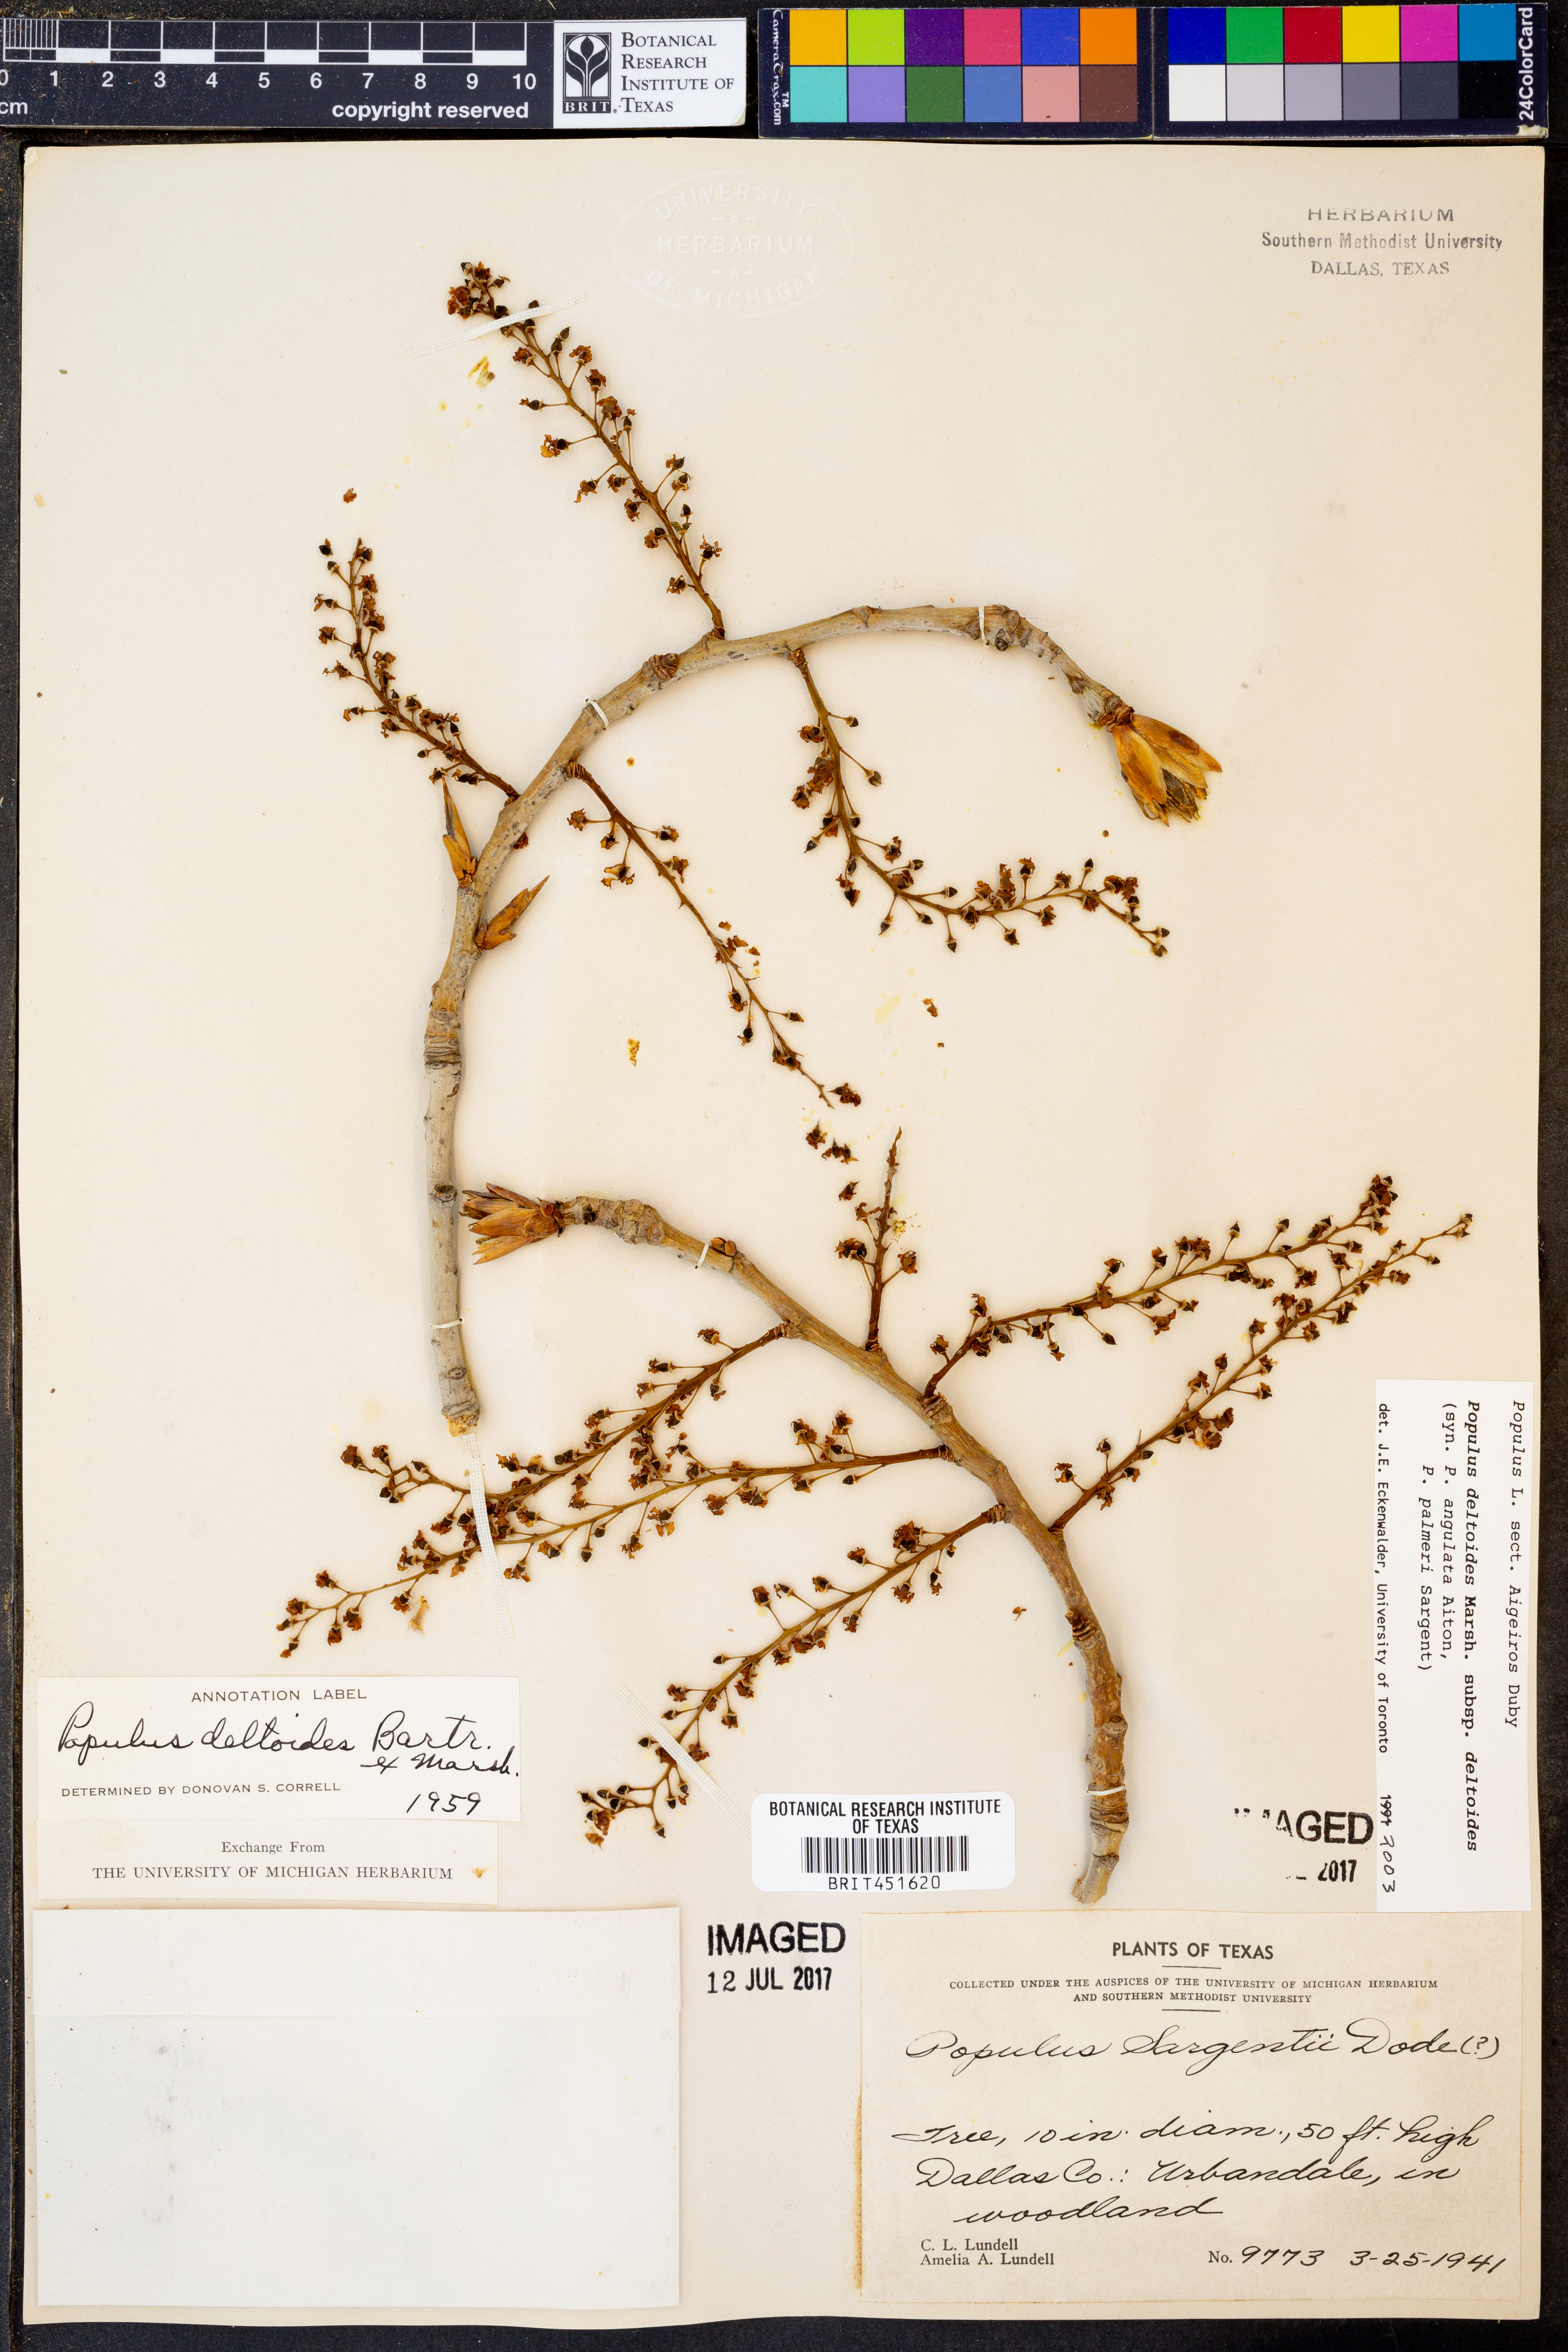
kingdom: Plantae
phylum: Tracheophyta
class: Magnoliopsida
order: Malpighiales
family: Salicaceae
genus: Populus
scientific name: Populus deltoides
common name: Eastern cottonwood
